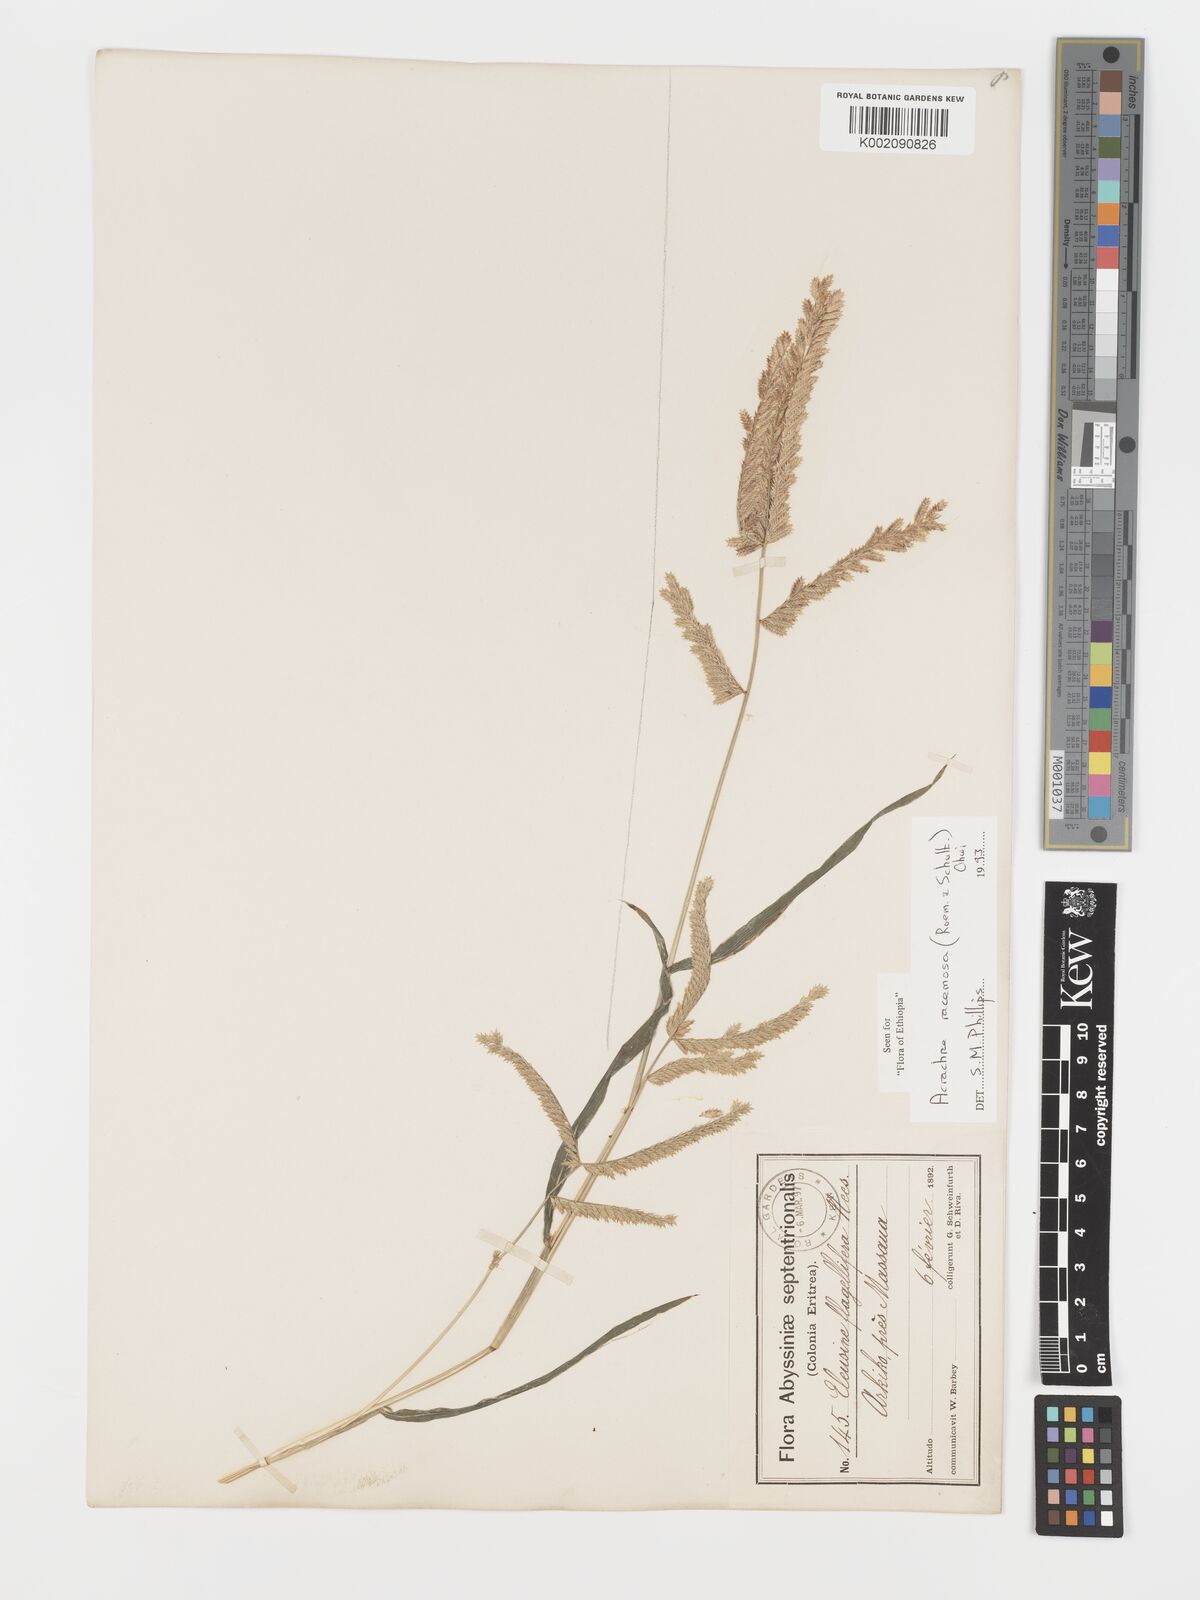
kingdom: Plantae
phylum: Tracheophyta
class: Liliopsida
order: Poales
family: Poaceae
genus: Acrachne
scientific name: Acrachne racemosa
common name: Goosegrass
